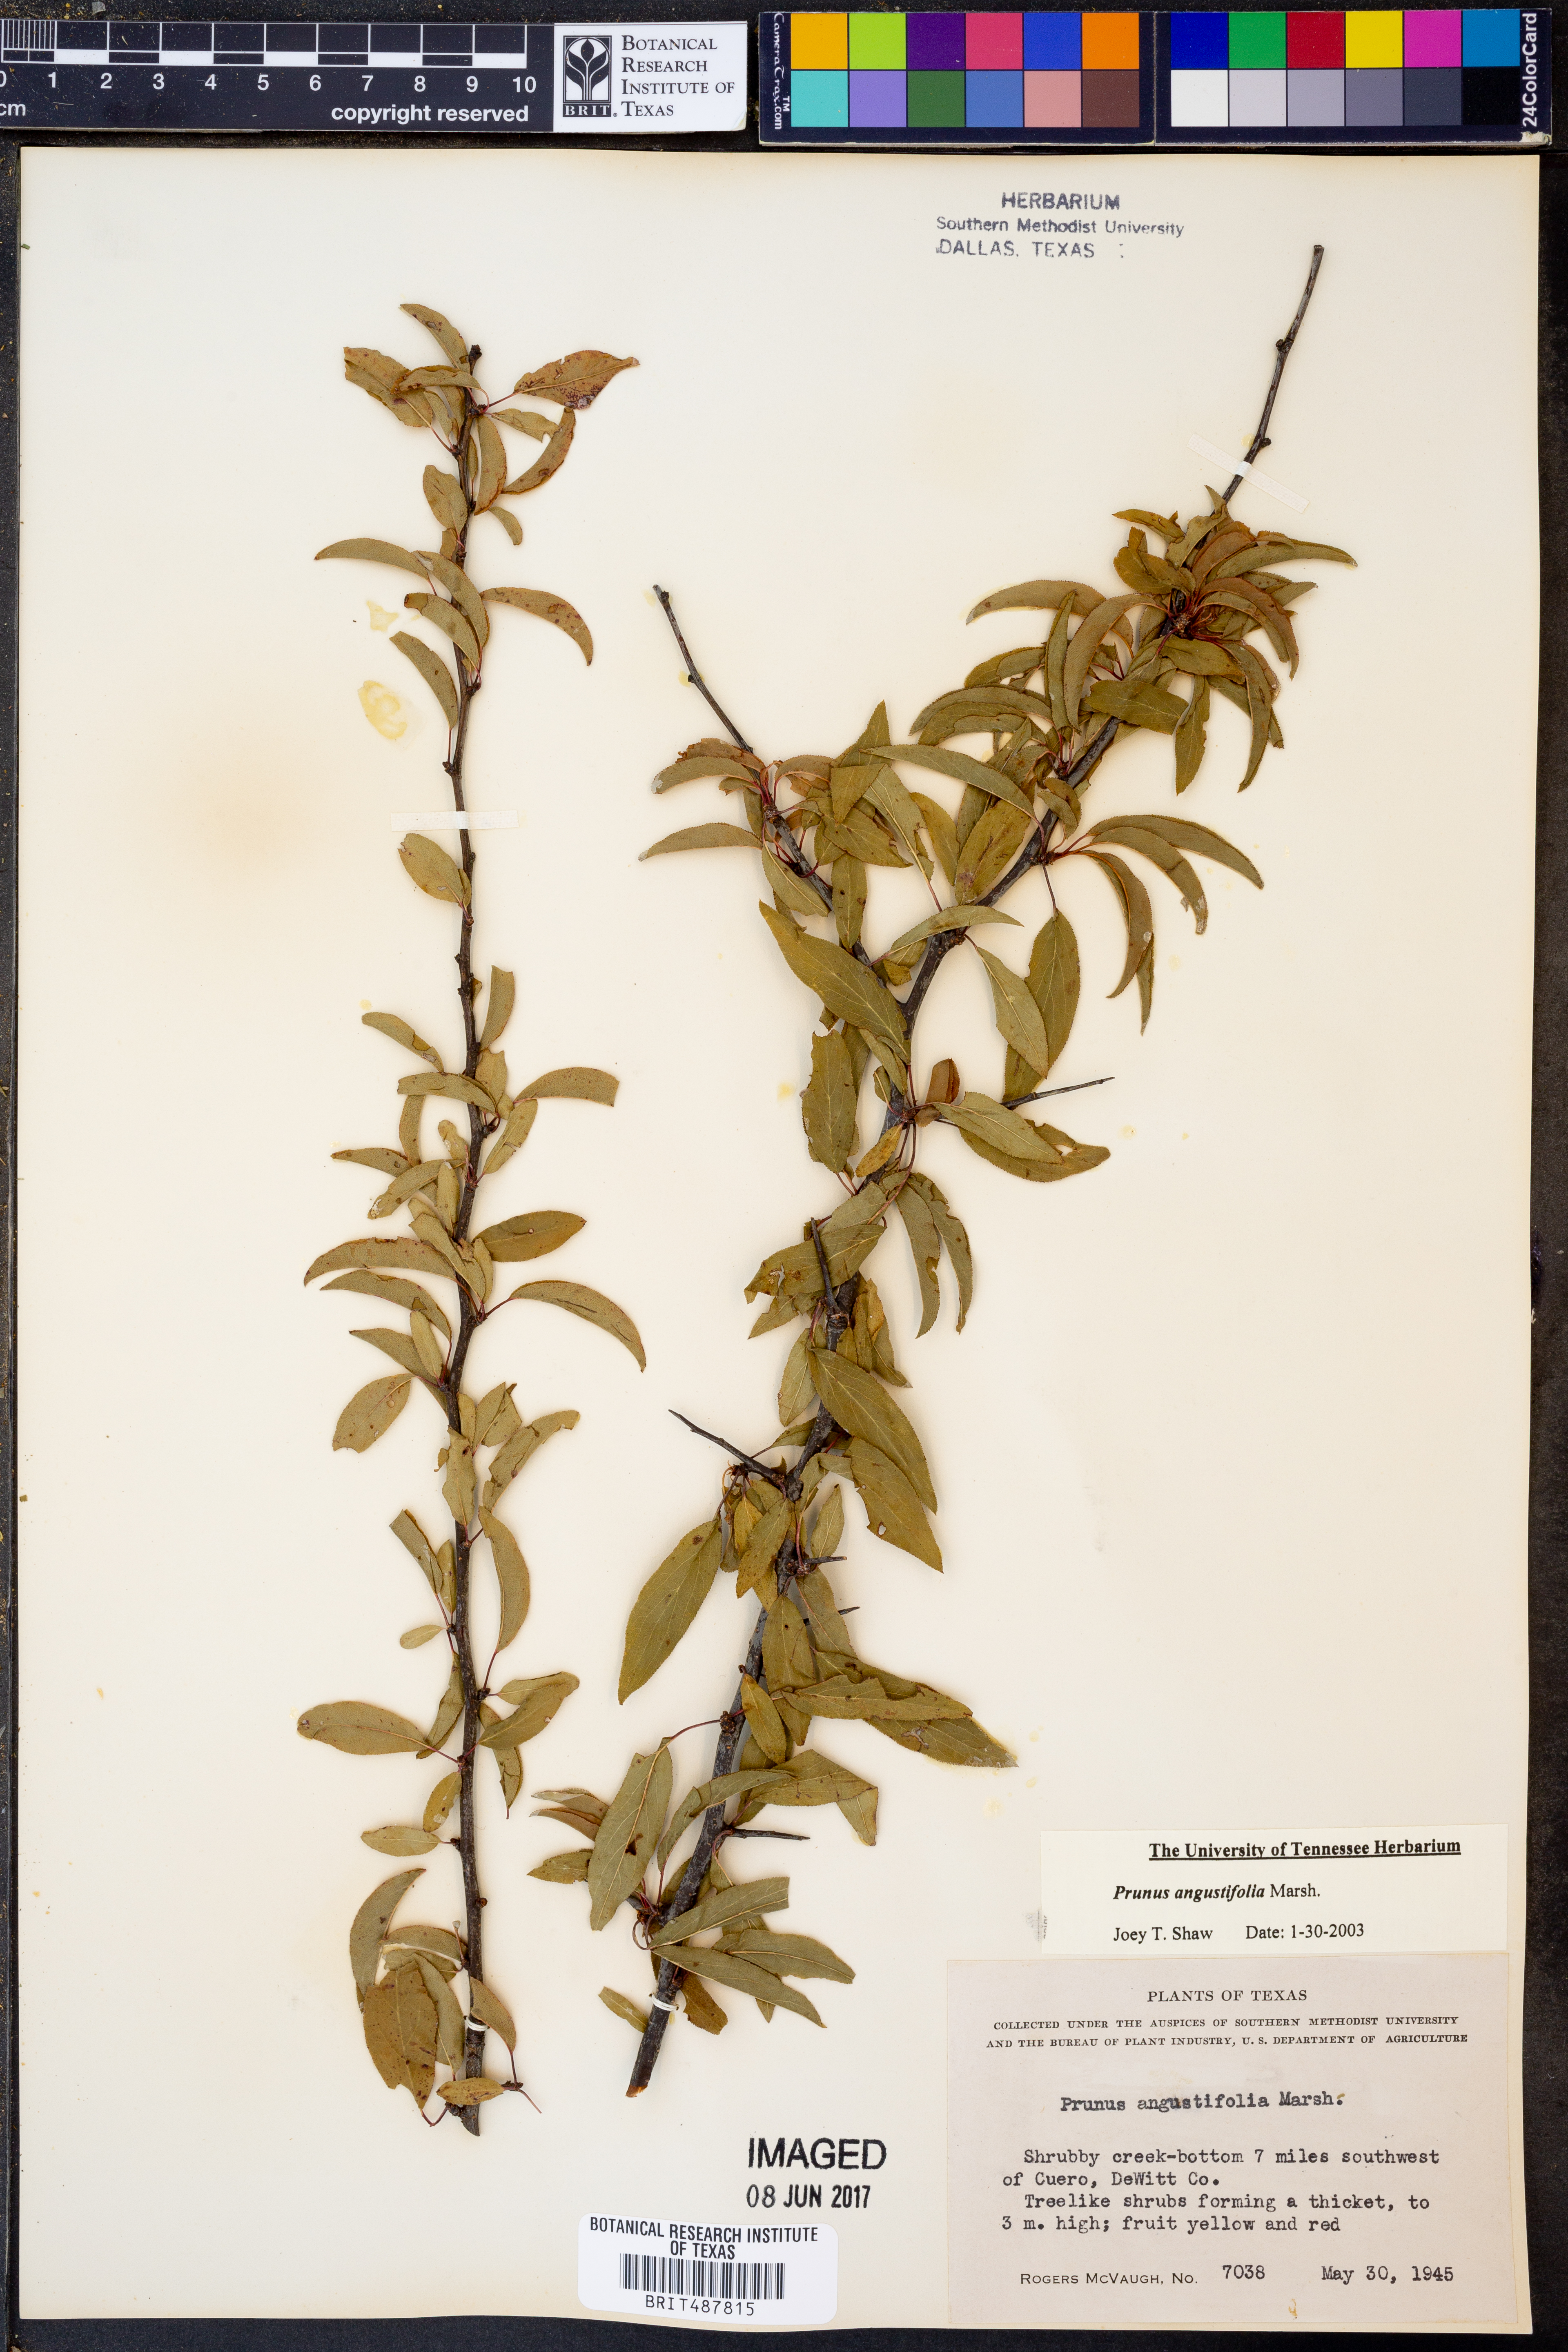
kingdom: Plantae
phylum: Tracheophyta
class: Magnoliopsida
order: Rosales
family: Rosaceae
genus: Prunus
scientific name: Prunus angustifolia
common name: Cherokee plum
